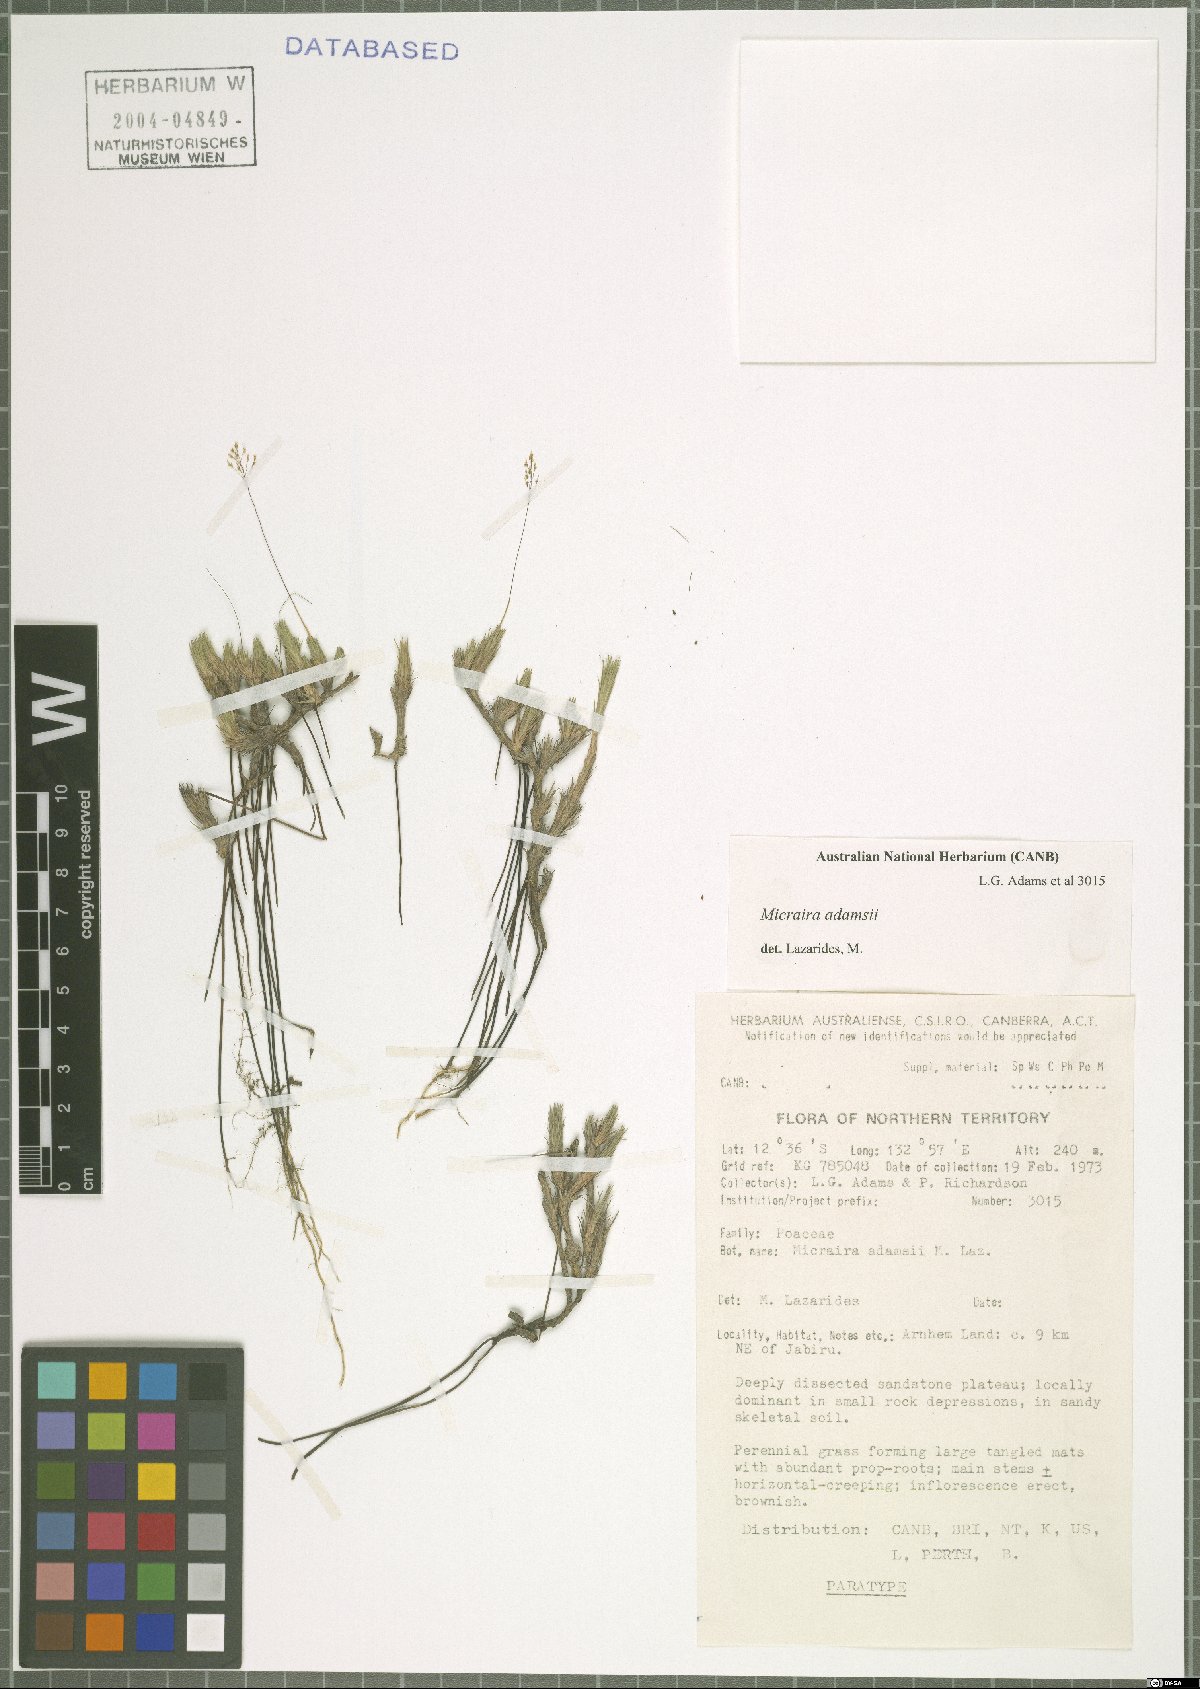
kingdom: Plantae
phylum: Tracheophyta
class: Liliopsida
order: Poales
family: Poaceae
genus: Micraira
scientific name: Micraira adamsii
